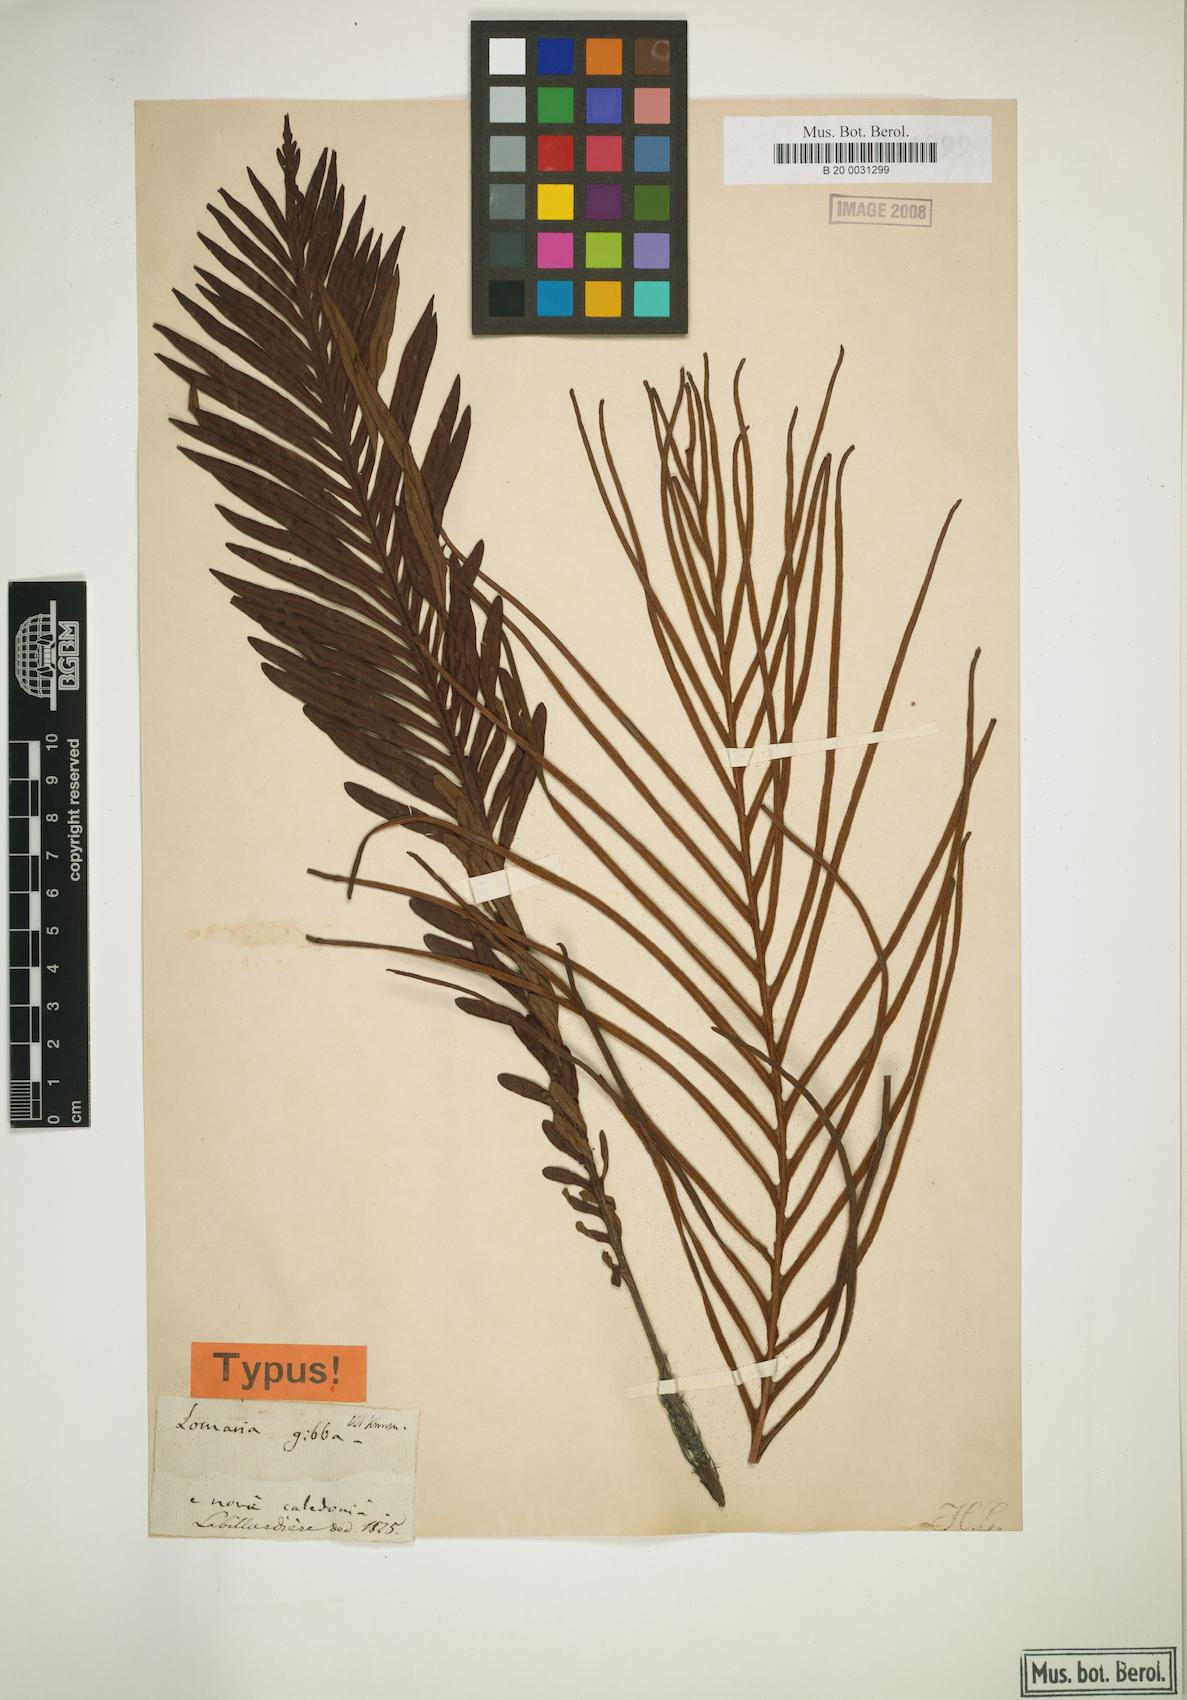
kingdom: Plantae
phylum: Tracheophyta
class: Polypodiopsida
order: Polypodiales
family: Blechnaceae
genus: Oceaniopteris
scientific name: Oceaniopteris gibba
